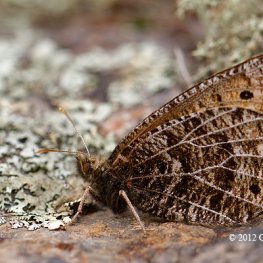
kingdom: Animalia
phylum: Arthropoda
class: Insecta
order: Lepidoptera
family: Nymphalidae
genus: Oeneis
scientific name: Oeneis chryxus
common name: Chryxus Arctic
